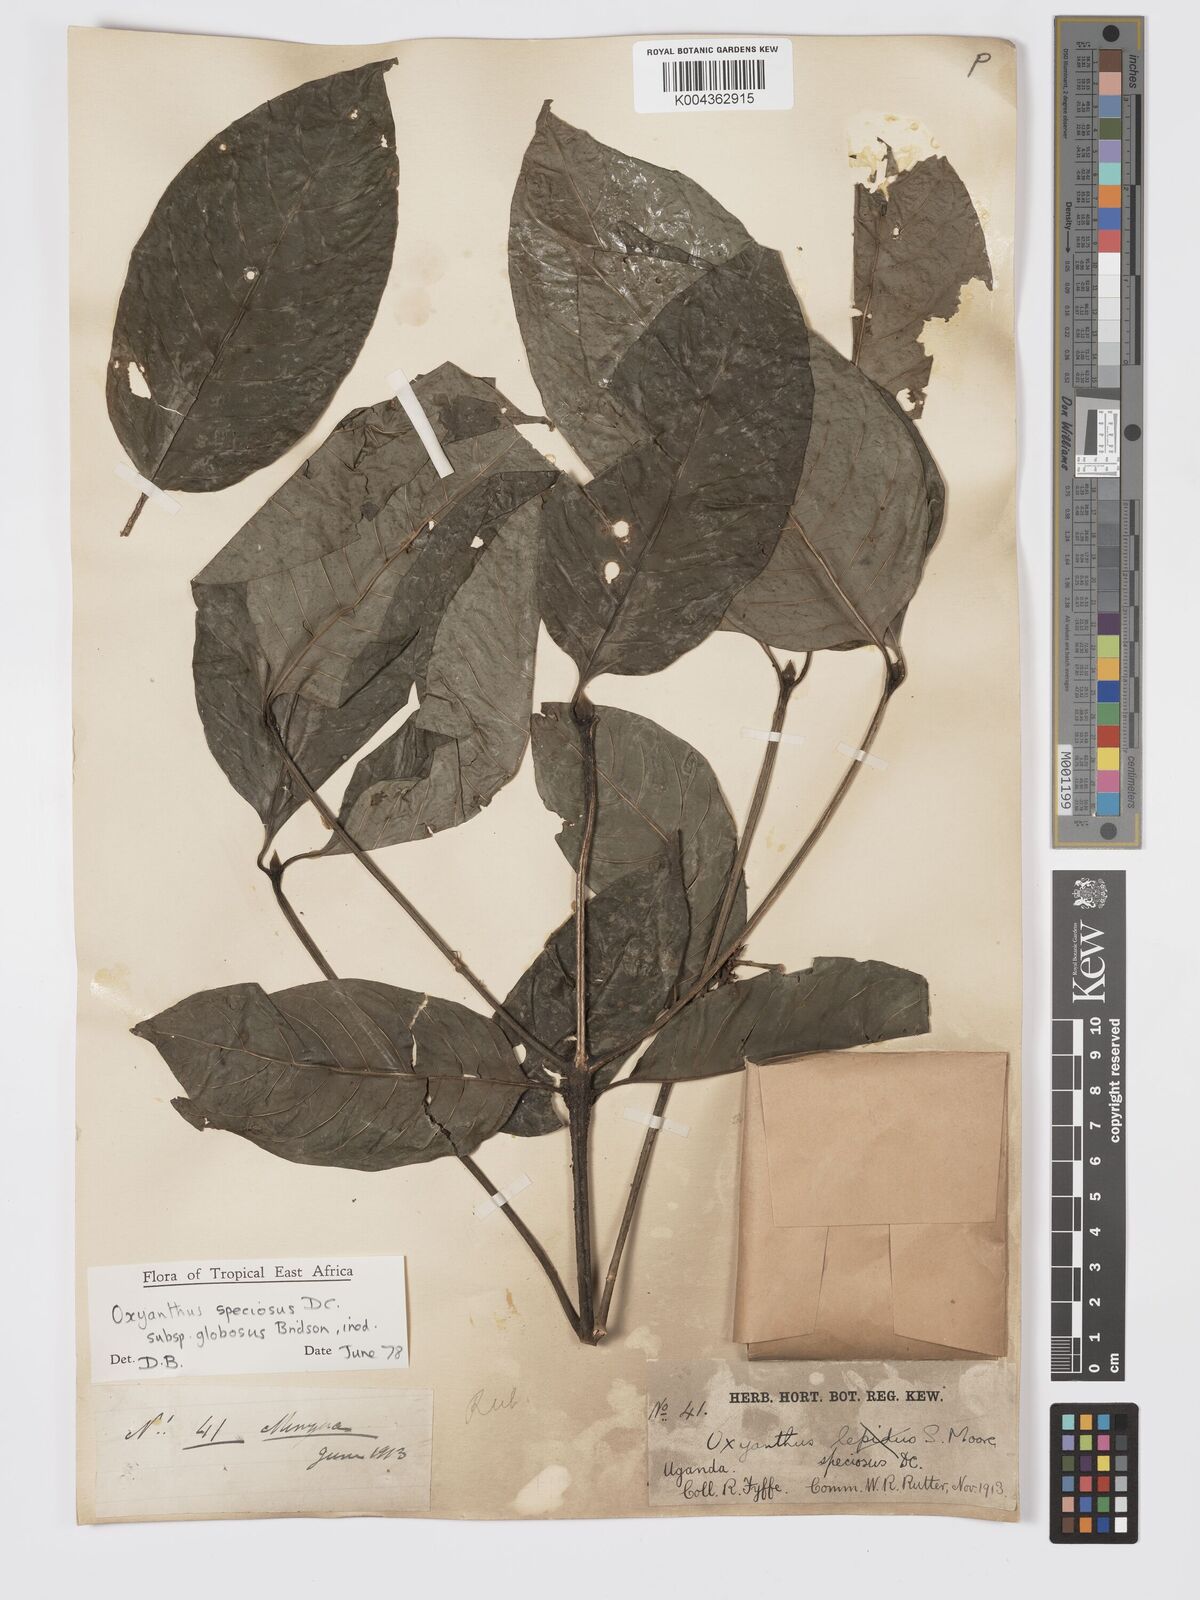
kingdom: Plantae
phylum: Tracheophyta
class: Magnoliopsida
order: Gentianales
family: Rubiaceae
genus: Oxyanthus
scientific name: Oxyanthus
